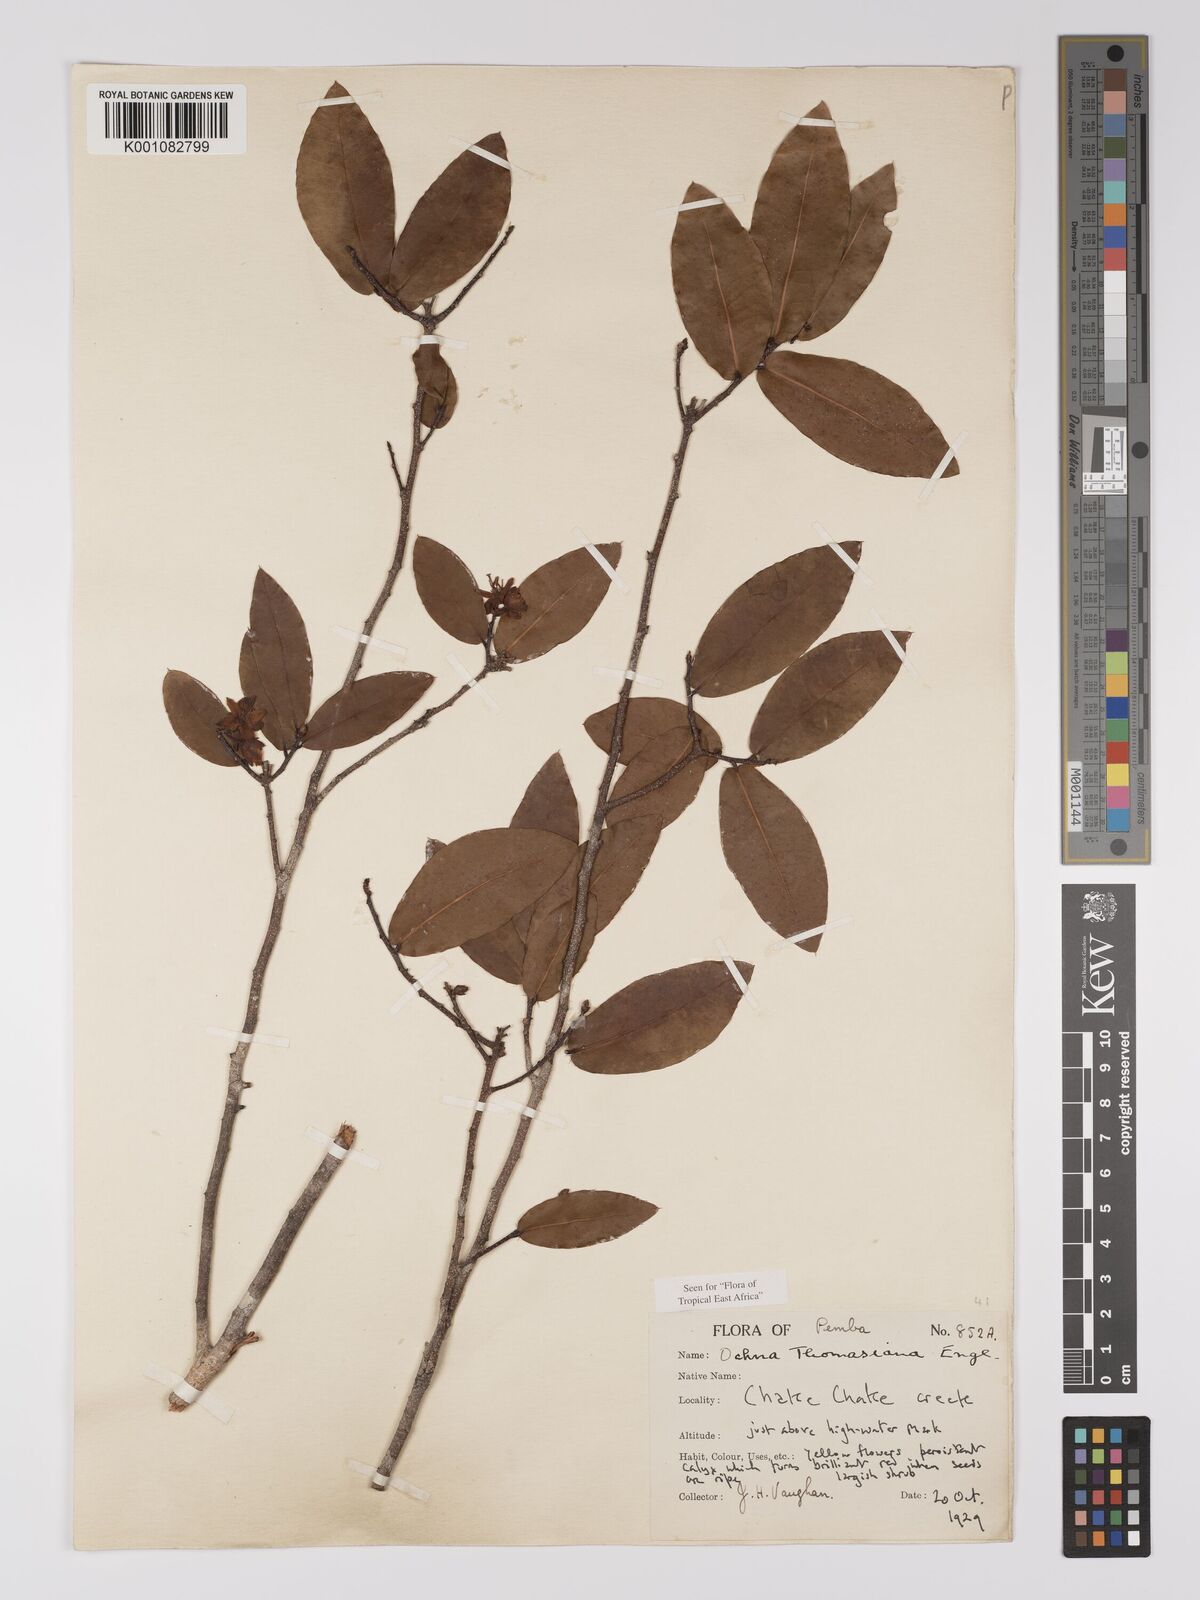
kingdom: Plantae
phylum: Tracheophyta
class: Magnoliopsida
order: Malpighiales
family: Ochnaceae
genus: Ochna
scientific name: Ochna thomasiana
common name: Thomas' bird's-eye bush
